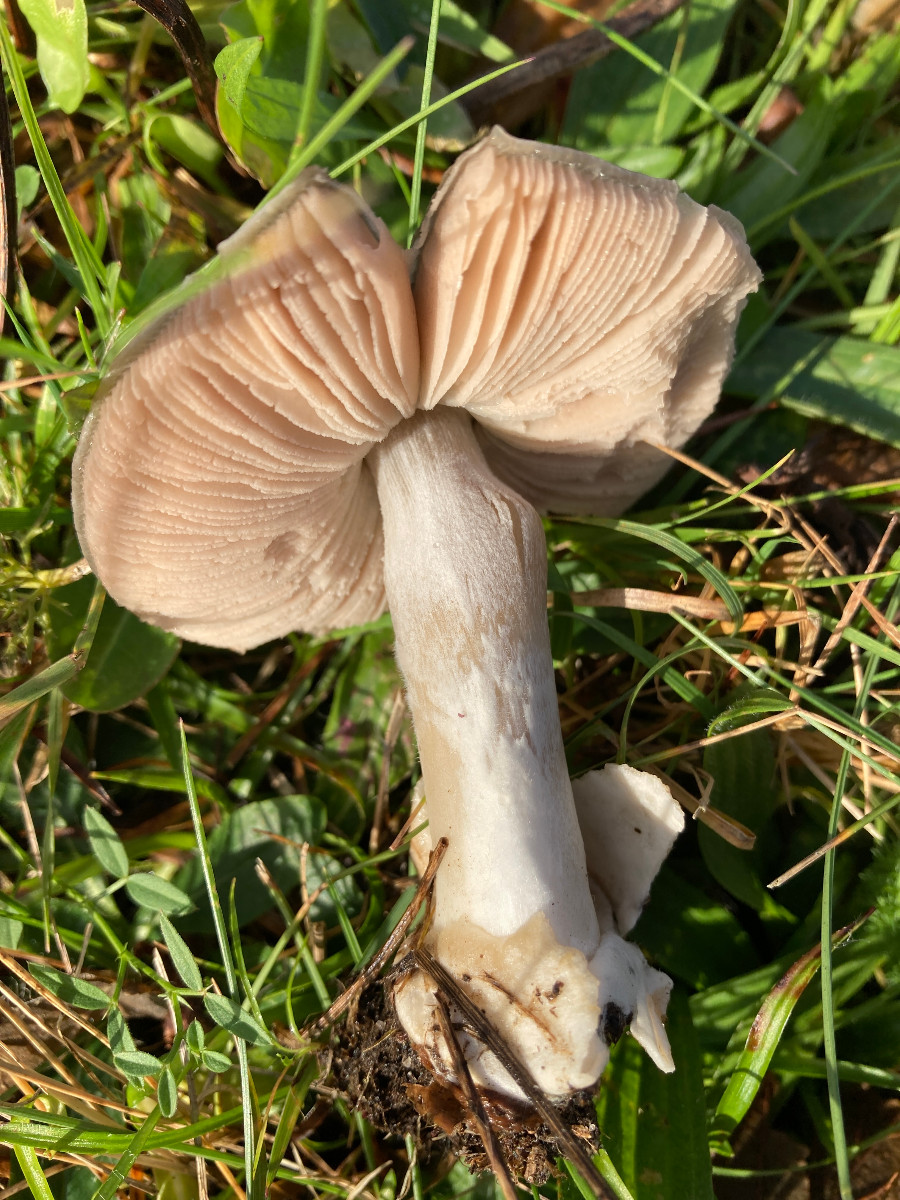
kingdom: Fungi
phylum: Basidiomycota
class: Agaricomycetes
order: Agaricales
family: Entolomataceae
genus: Entoloma
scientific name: Entoloma prunuloides
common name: mel-rødblad
